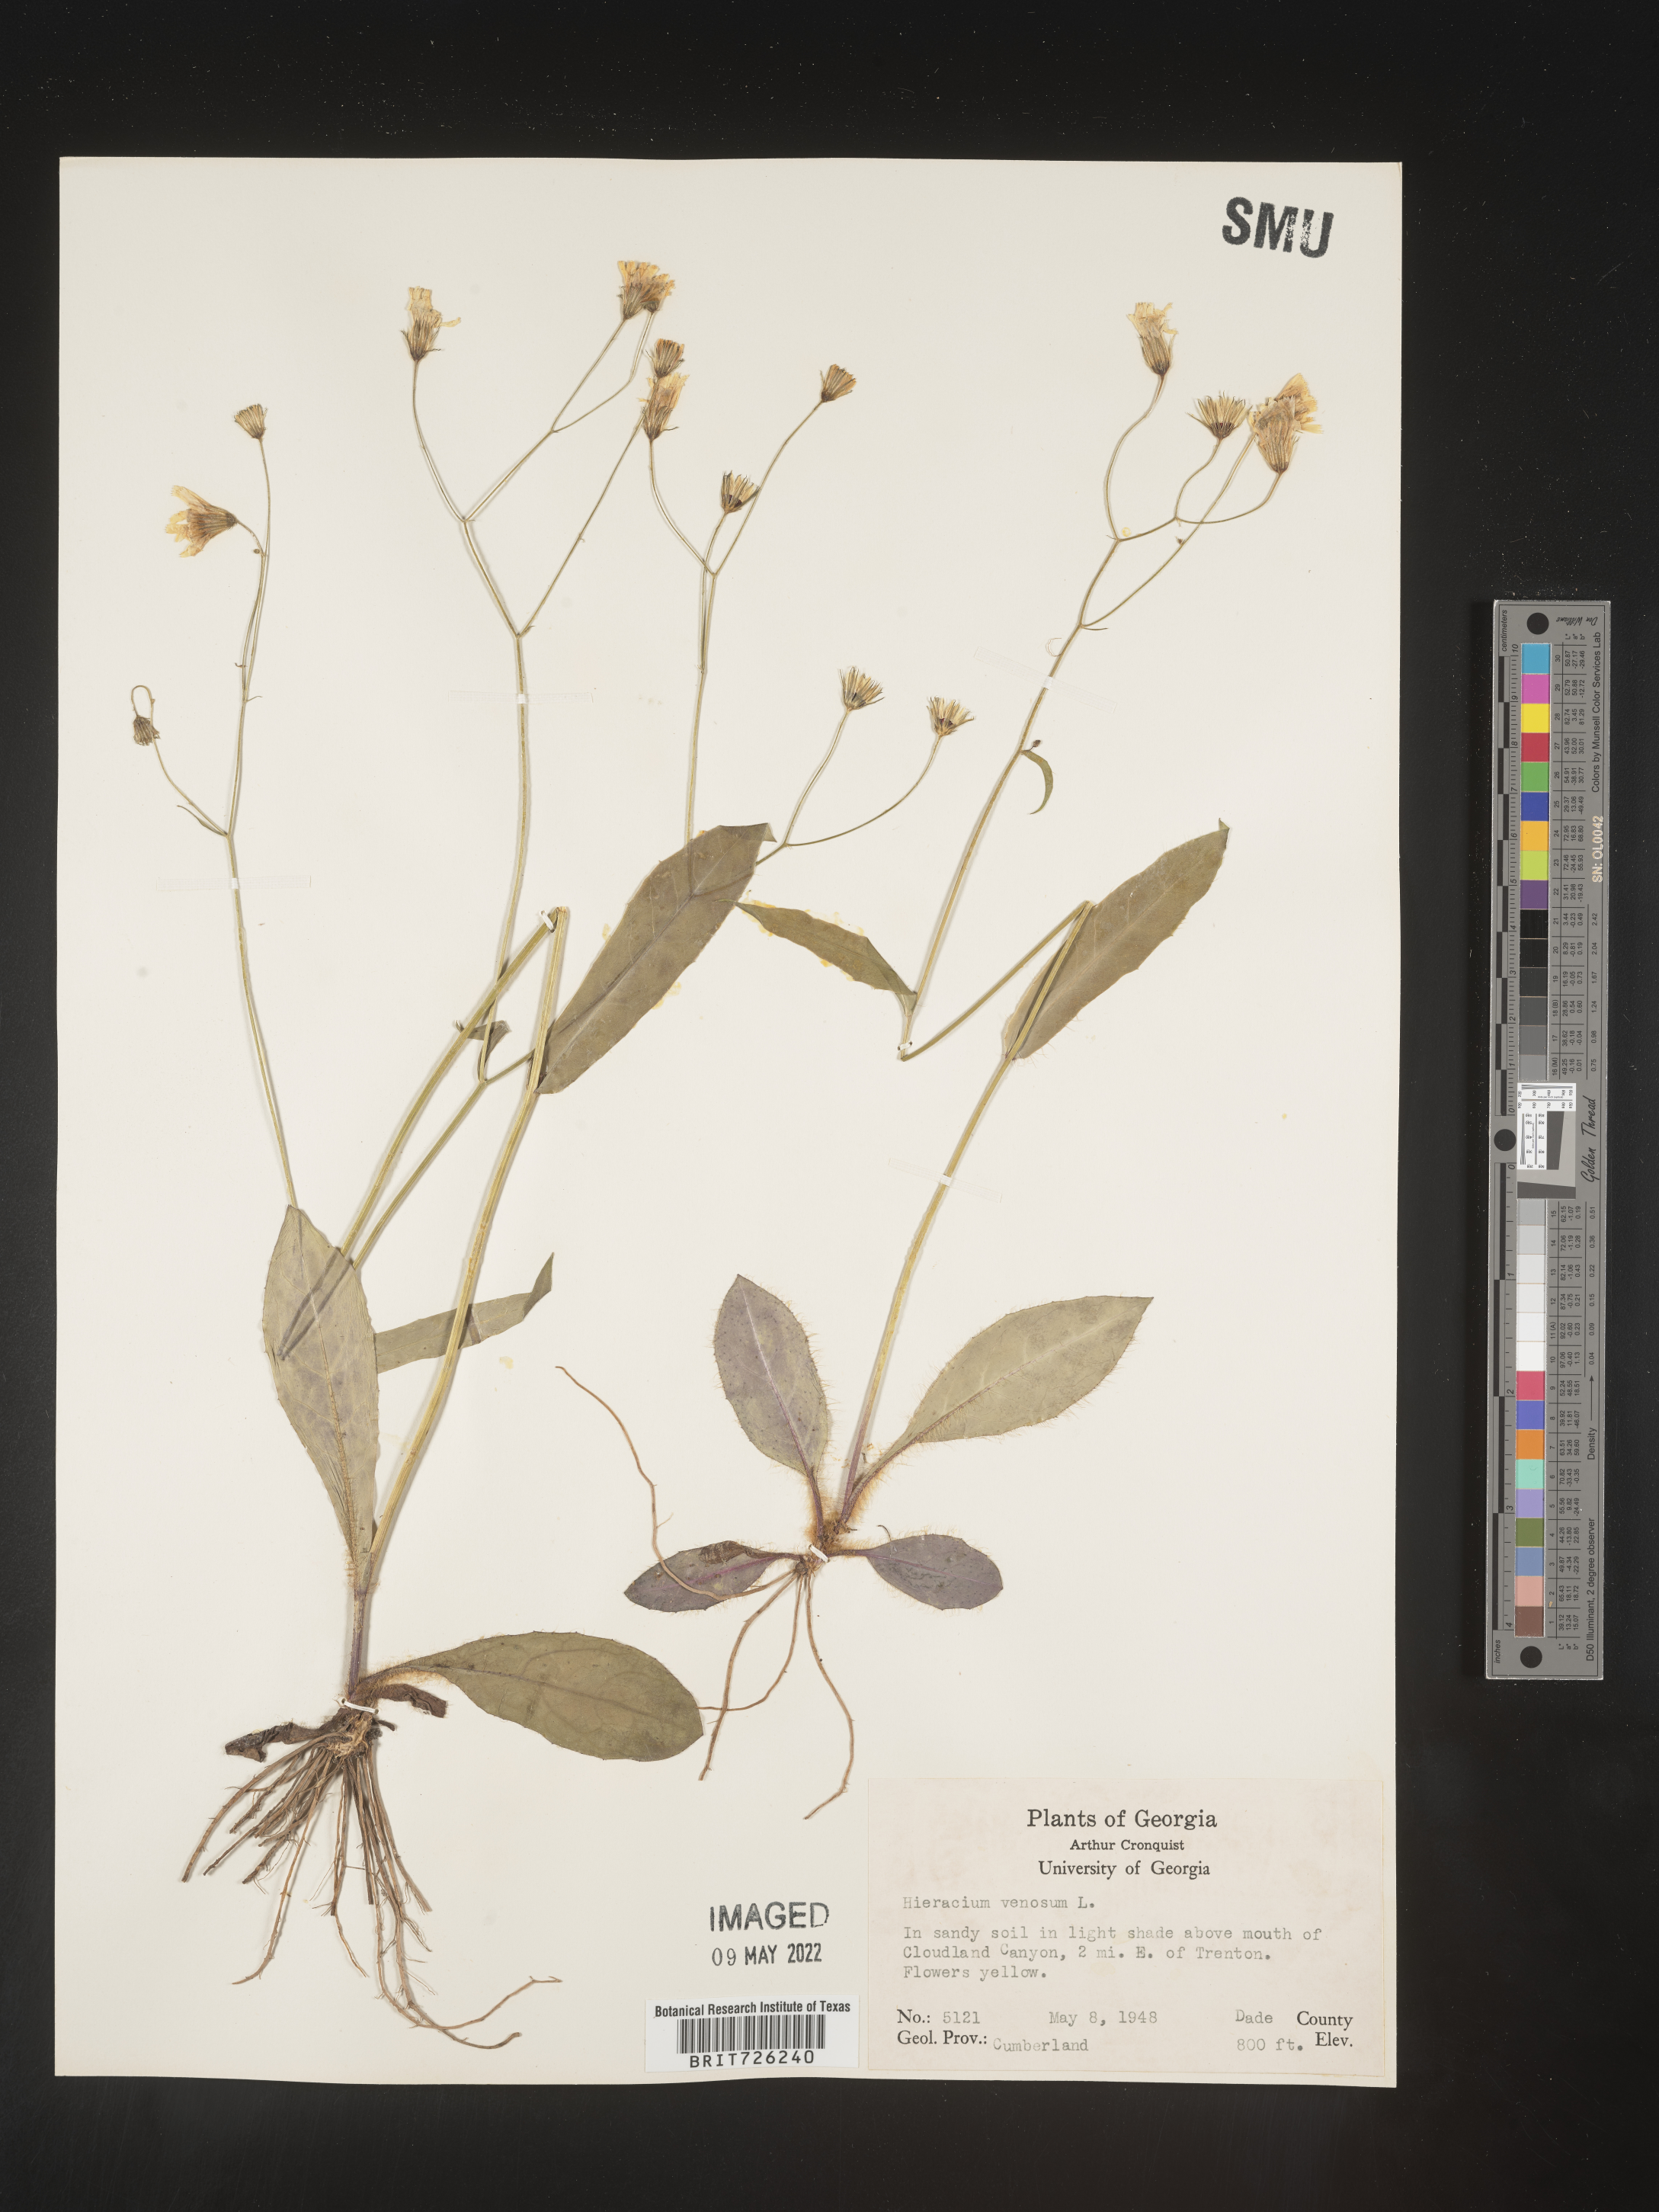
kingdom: Plantae
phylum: Tracheophyta
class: Magnoliopsida
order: Asterales
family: Asteraceae
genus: Hieracium
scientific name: Hieracium
